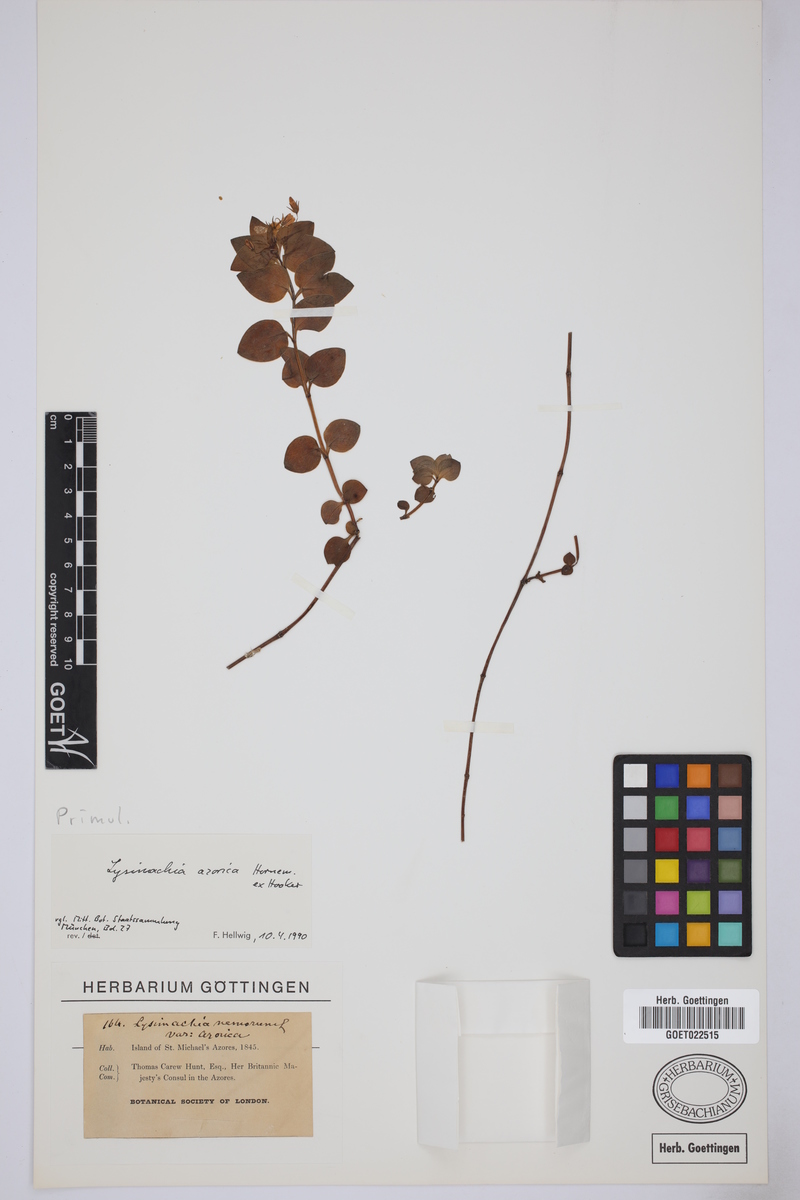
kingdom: Plantae
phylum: Tracheophyta
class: Magnoliopsida
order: Ericales
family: Primulaceae
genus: Lysimachia
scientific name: Lysimachia azorica
